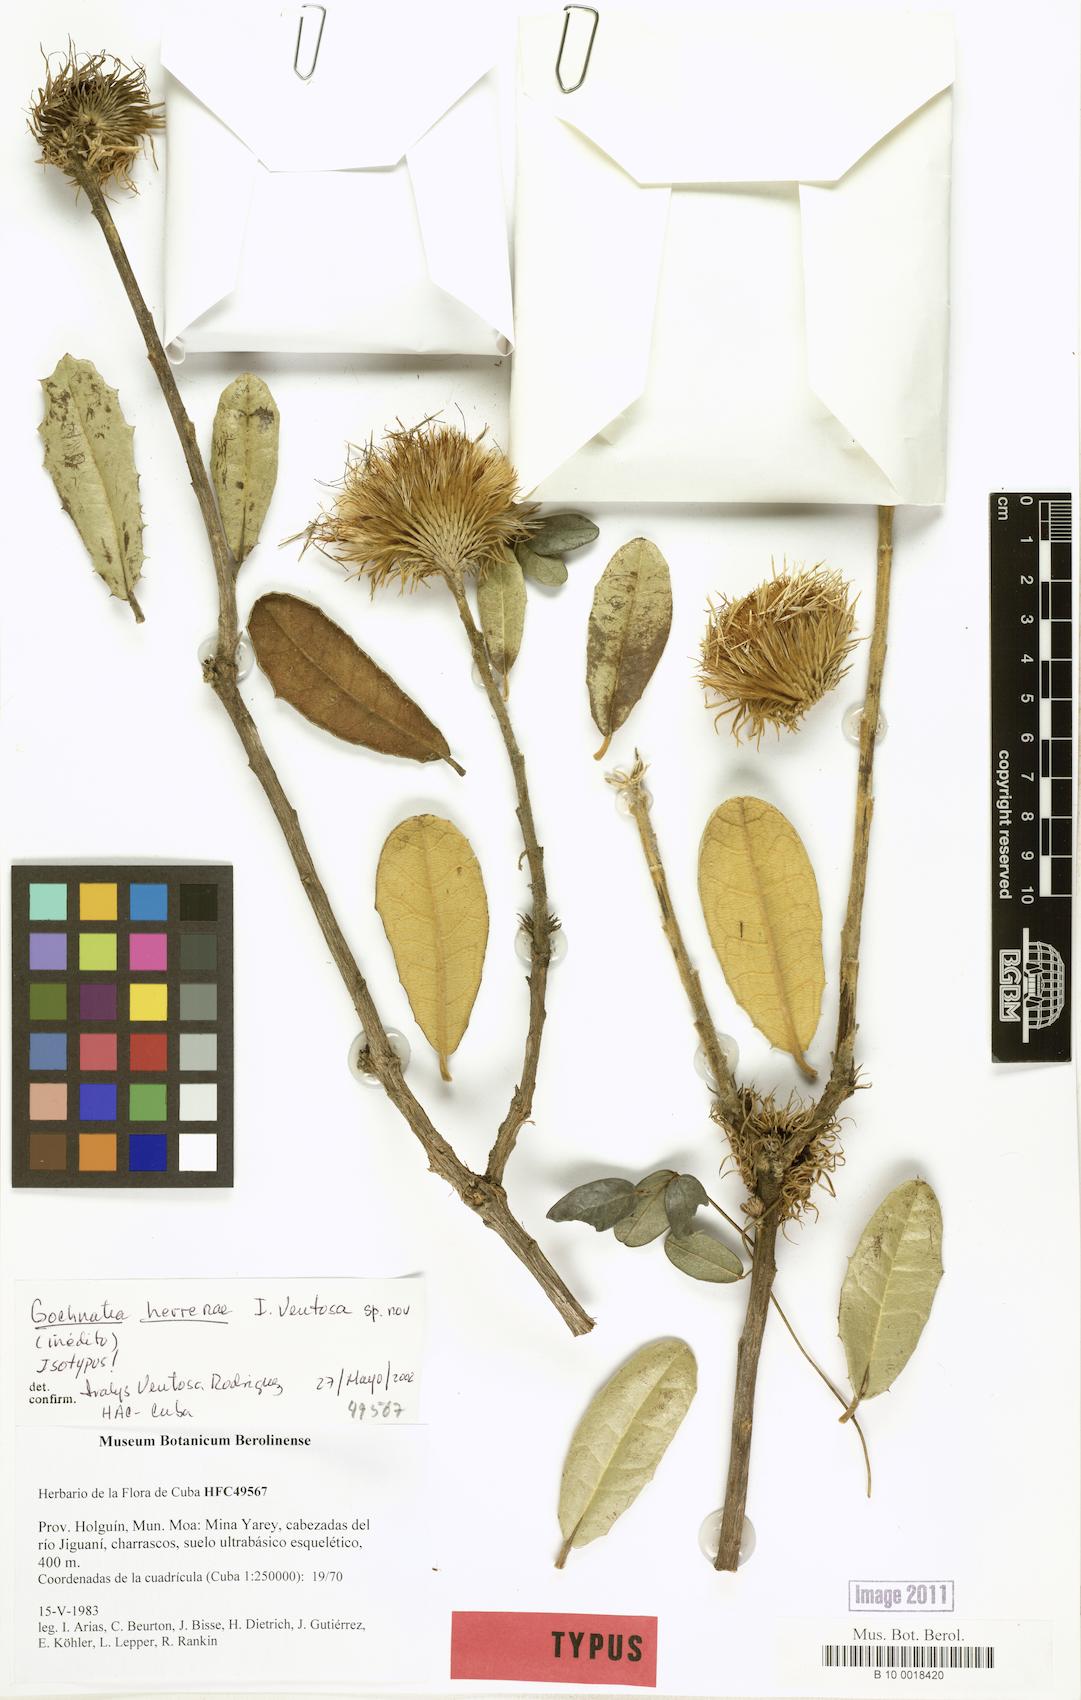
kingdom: Plantae
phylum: Tracheophyta
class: Magnoliopsida
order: Asterales
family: Asteraceae
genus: Anastraphia
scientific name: Anastraphia herrerae
